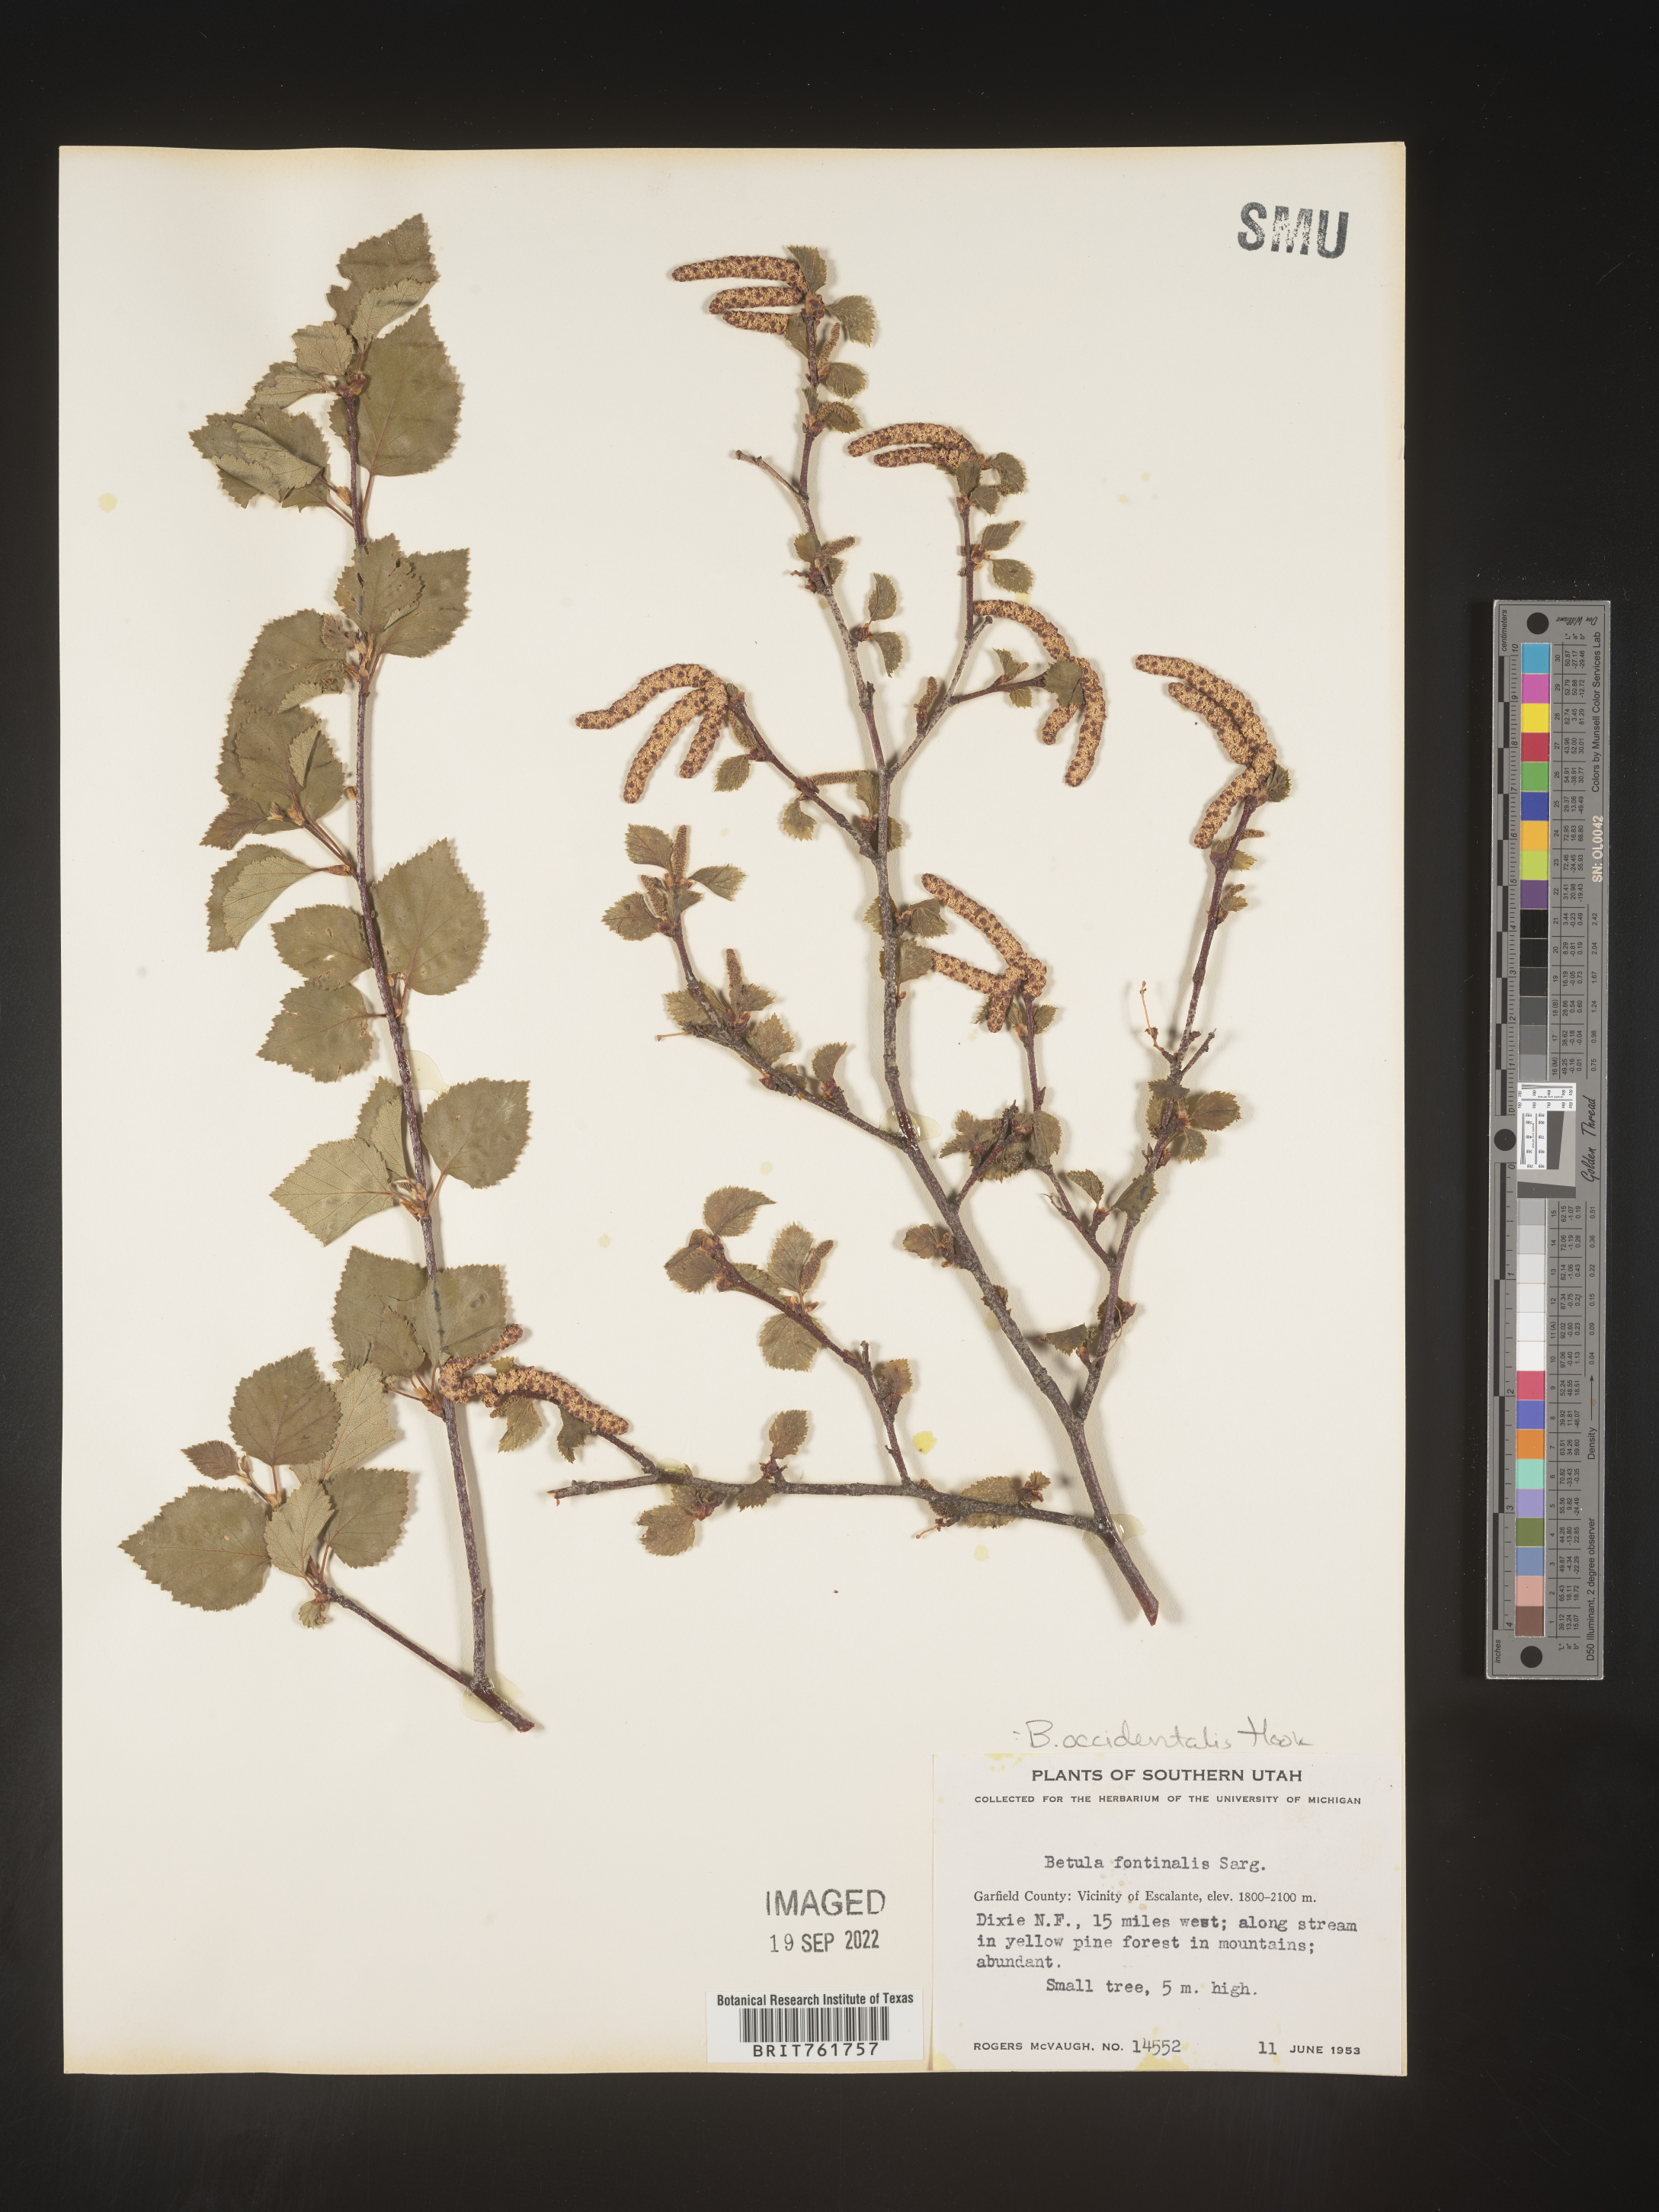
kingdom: Plantae
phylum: Tracheophyta
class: Magnoliopsida
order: Fagales
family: Betulaceae
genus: Betula
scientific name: Betula occidentalis
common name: River birch
